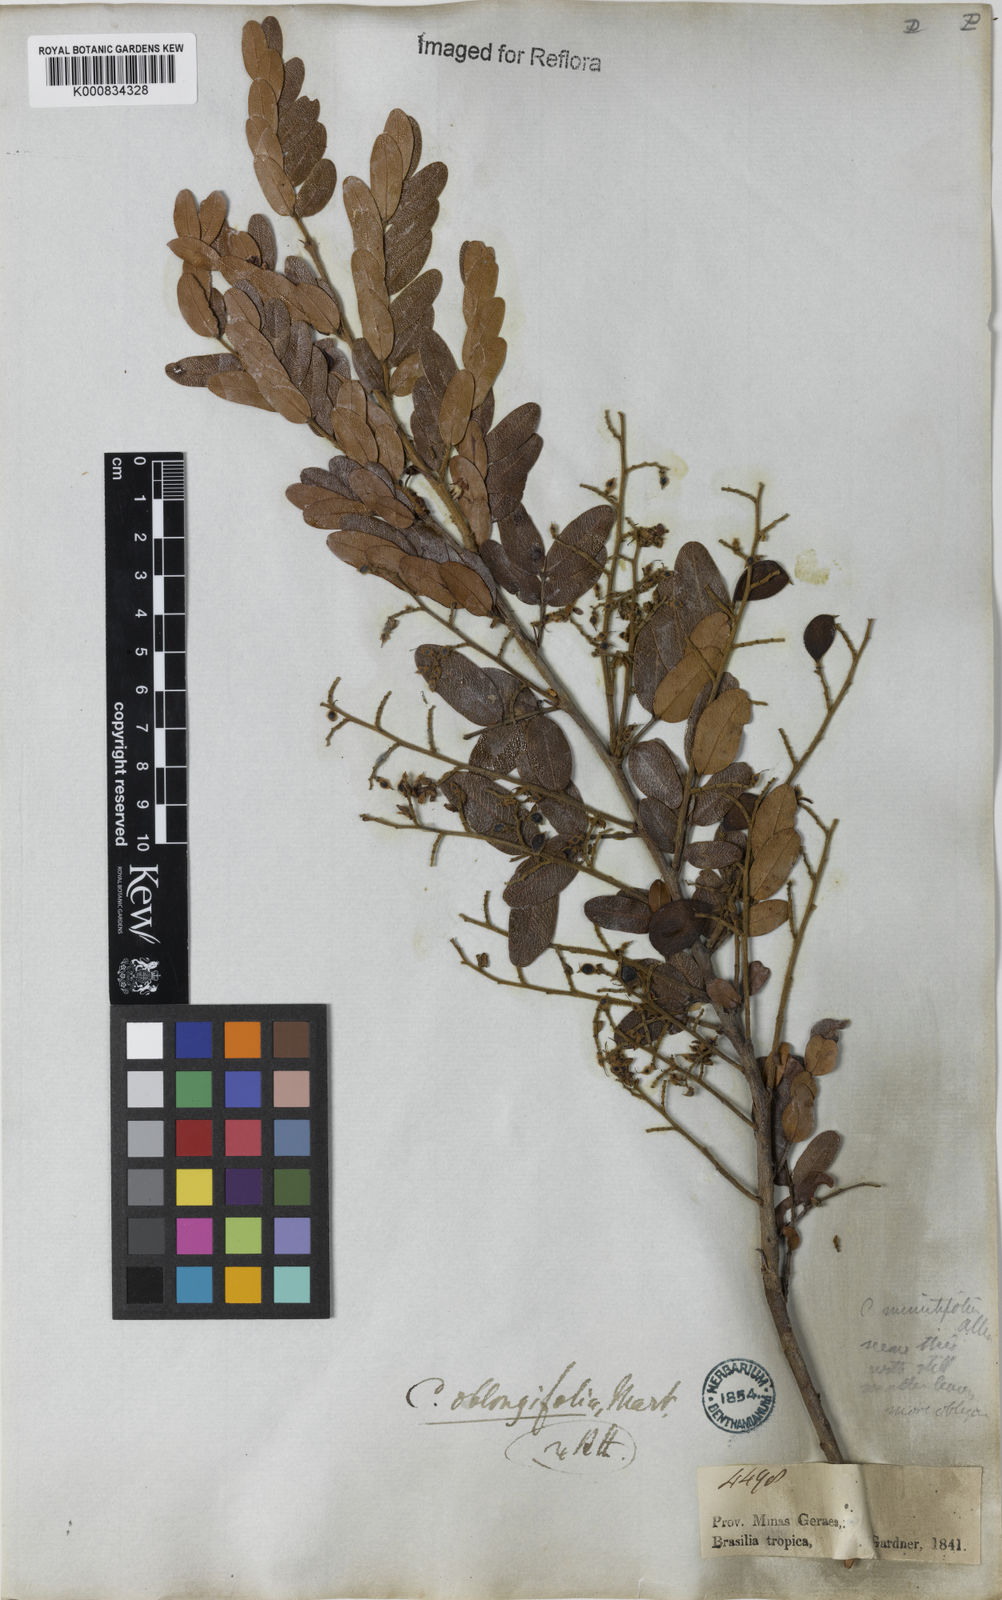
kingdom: Plantae
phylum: Tracheophyta
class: Magnoliopsida
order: Fabales
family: Fabaceae
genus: Copaifera
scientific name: Copaifera
